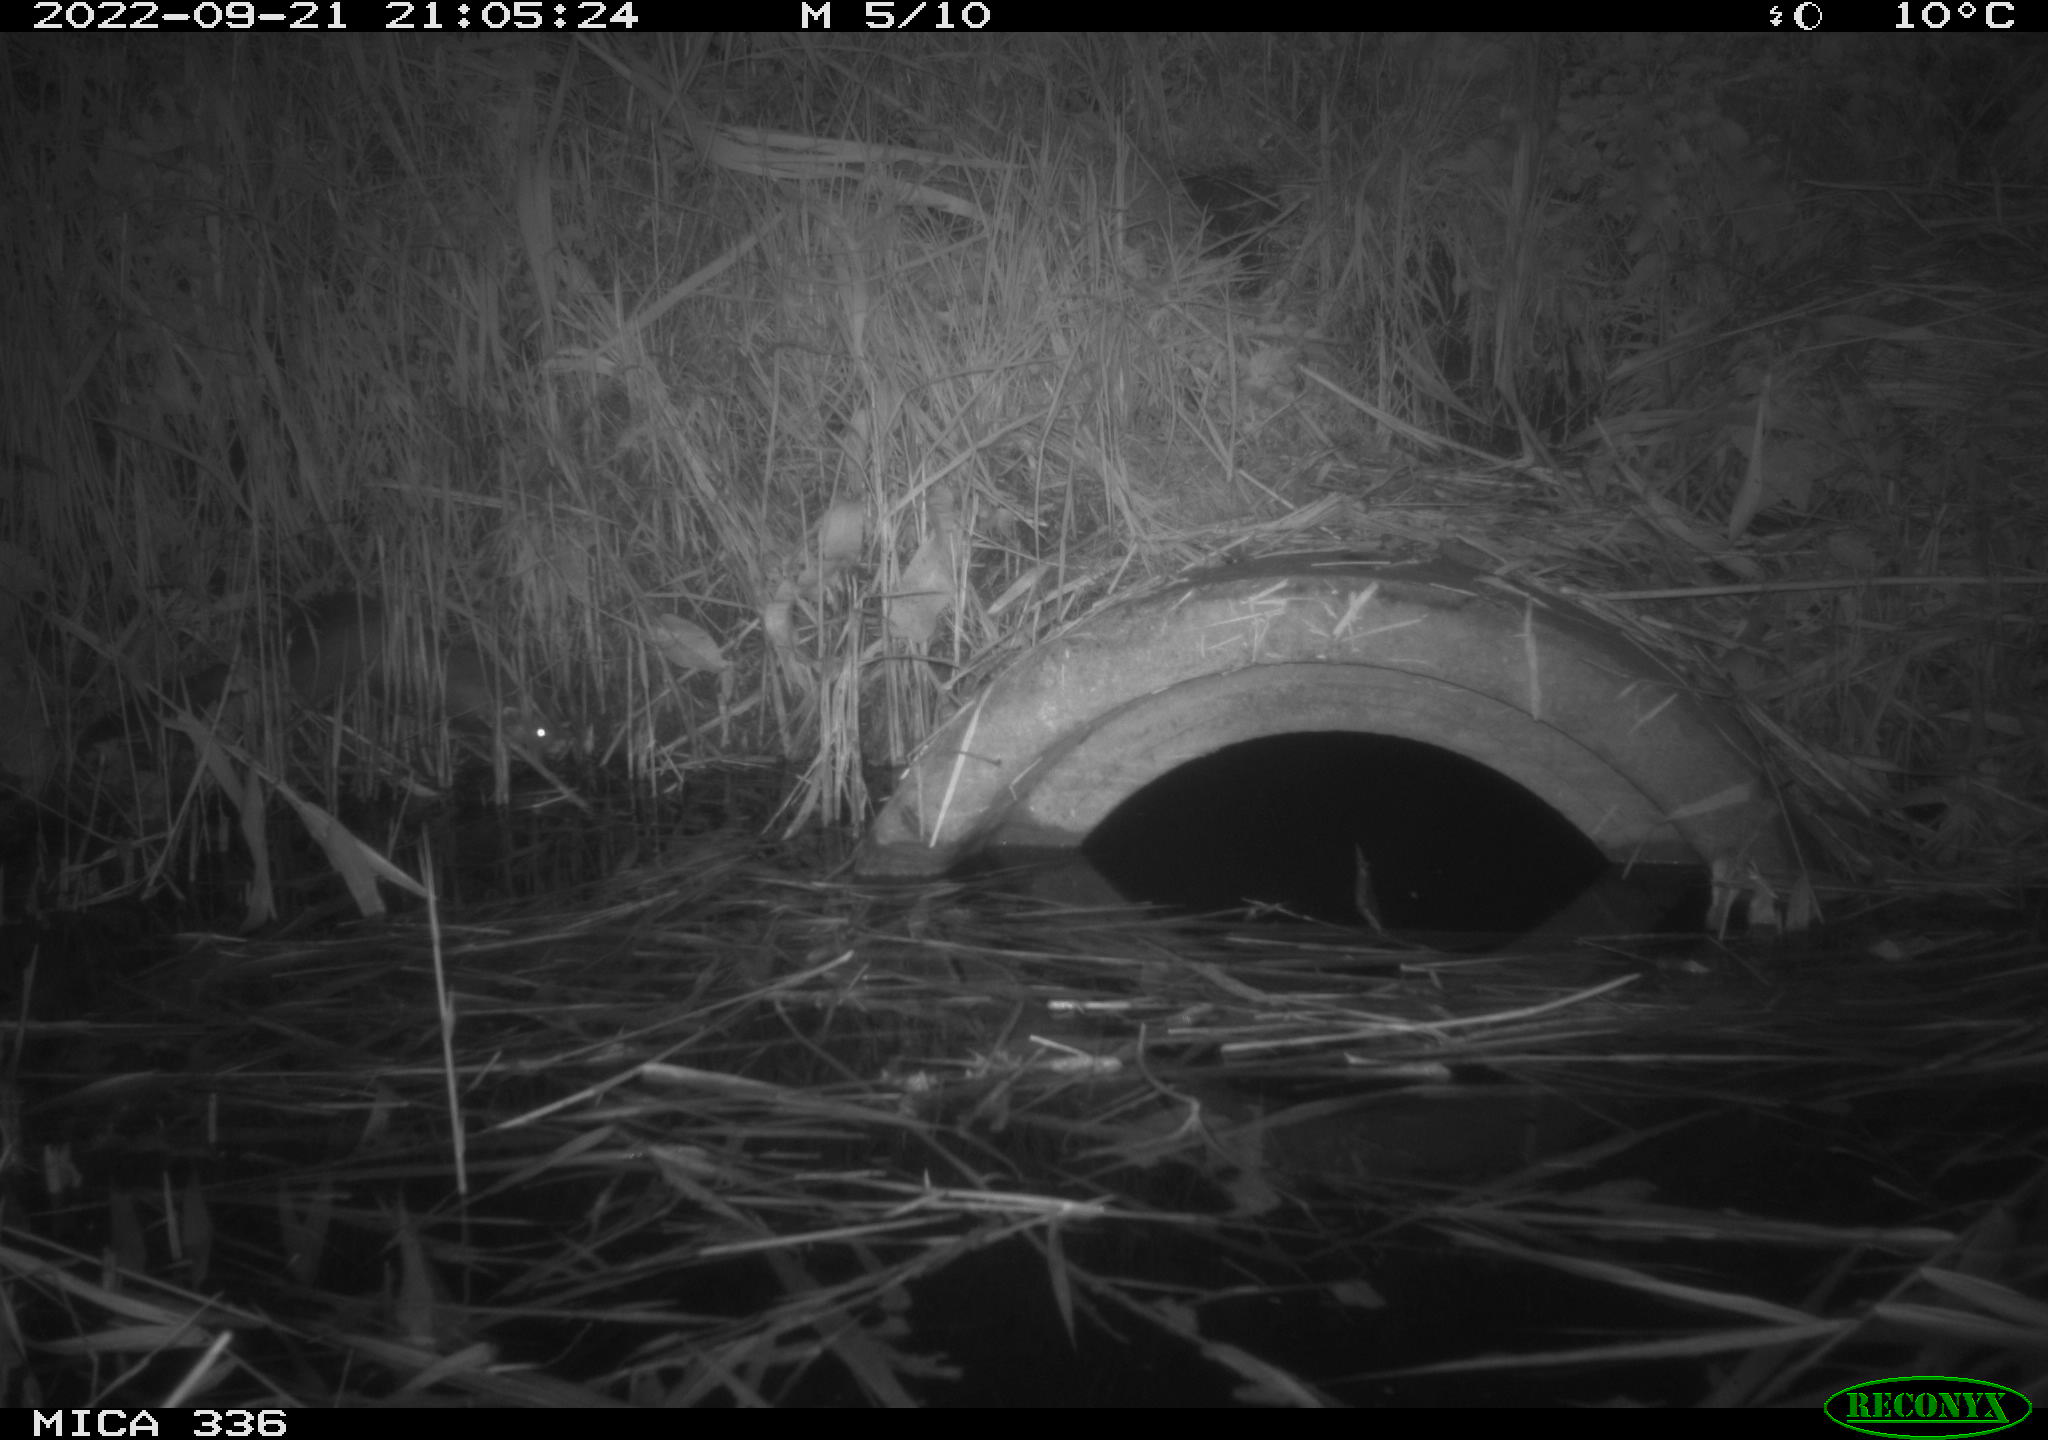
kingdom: Animalia
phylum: Chordata
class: Mammalia
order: Carnivora
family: Mustelidae
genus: Mustela
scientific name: Mustela putorius
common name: European polecat
